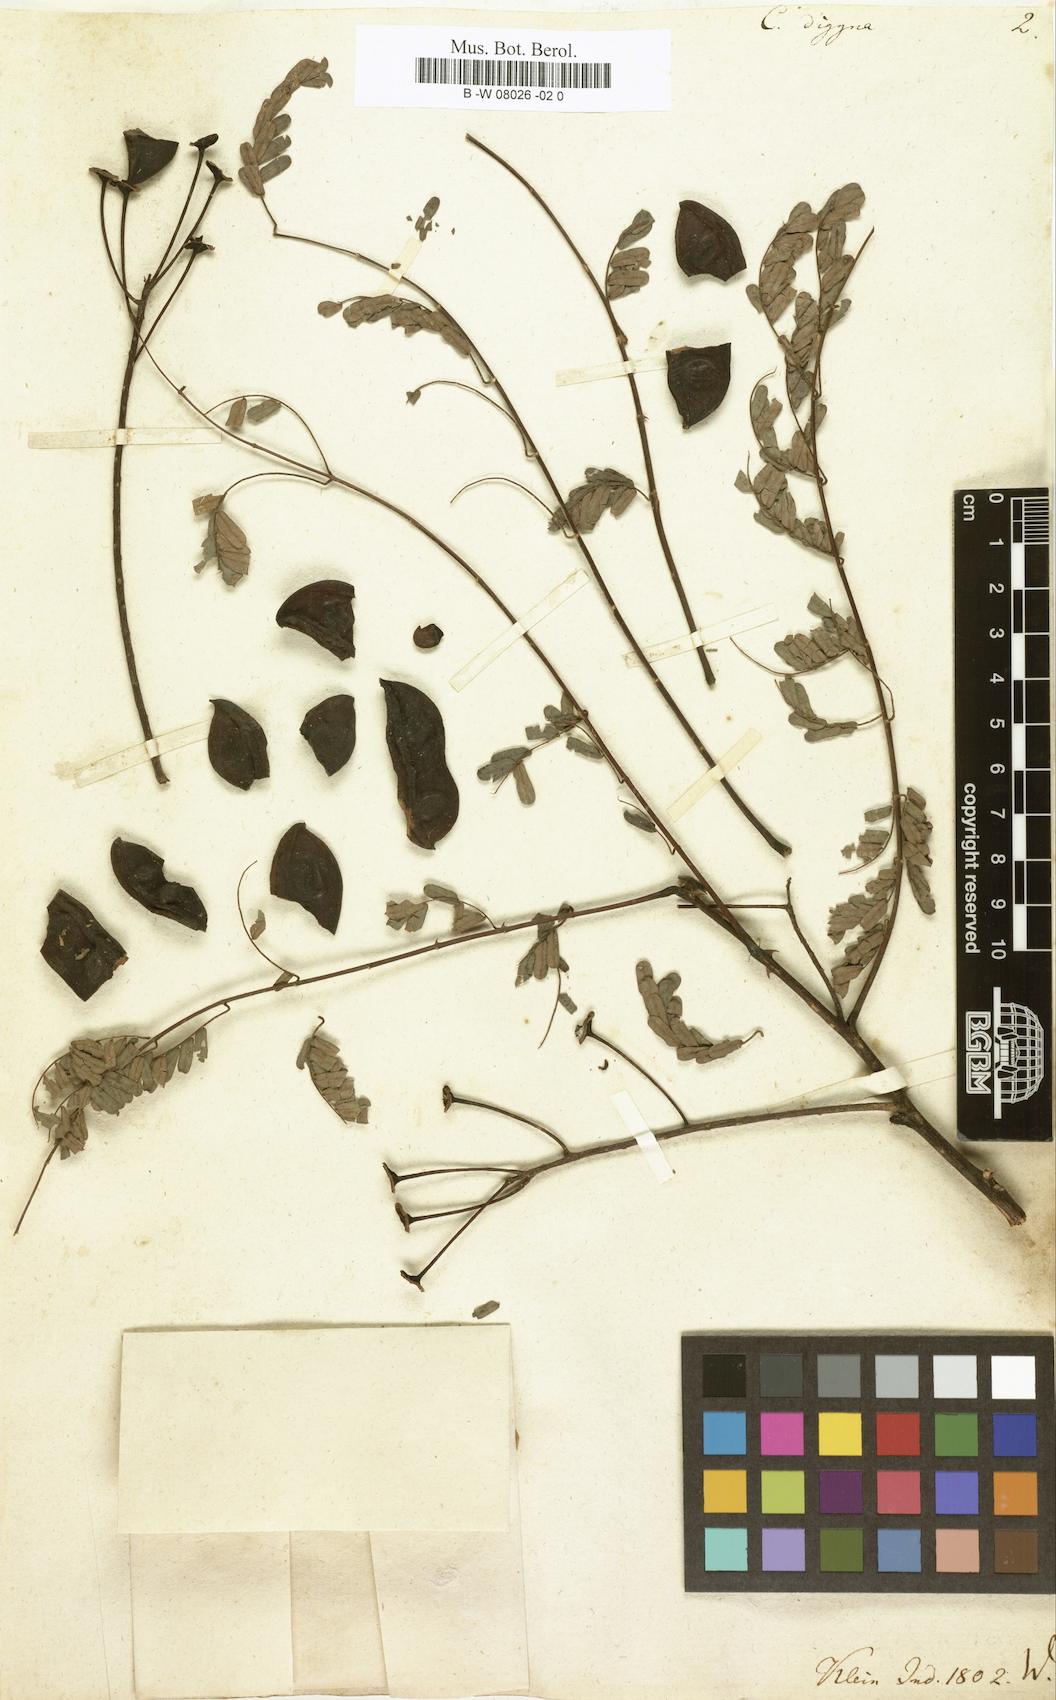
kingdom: Plantae
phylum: Tracheophyta
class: Magnoliopsida
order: Fabales
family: Fabaceae
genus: Moullava
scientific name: Moullava digyna
